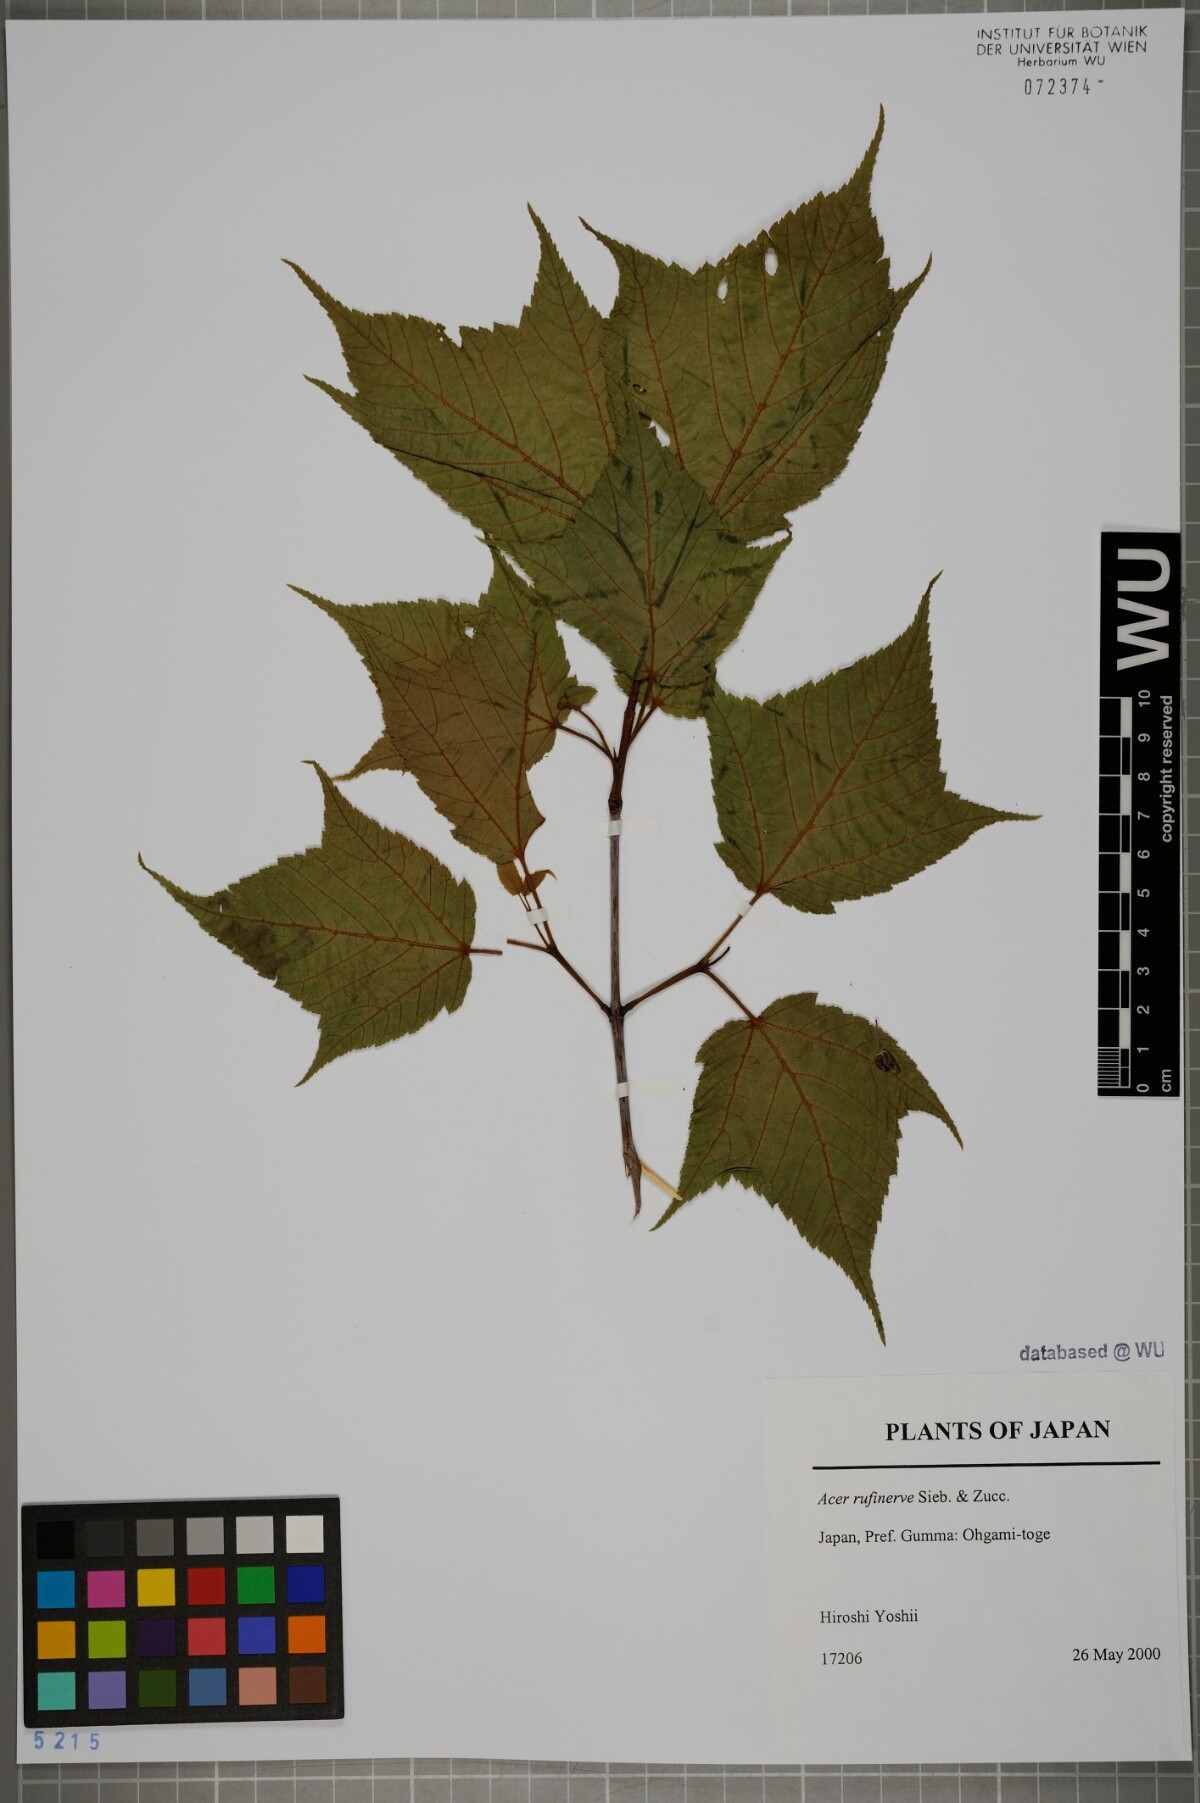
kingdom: Plantae
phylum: Tracheophyta
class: Magnoliopsida
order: Sapindales
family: Sapindaceae
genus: Acer
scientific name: Acer rufinerve
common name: Red veined maple
